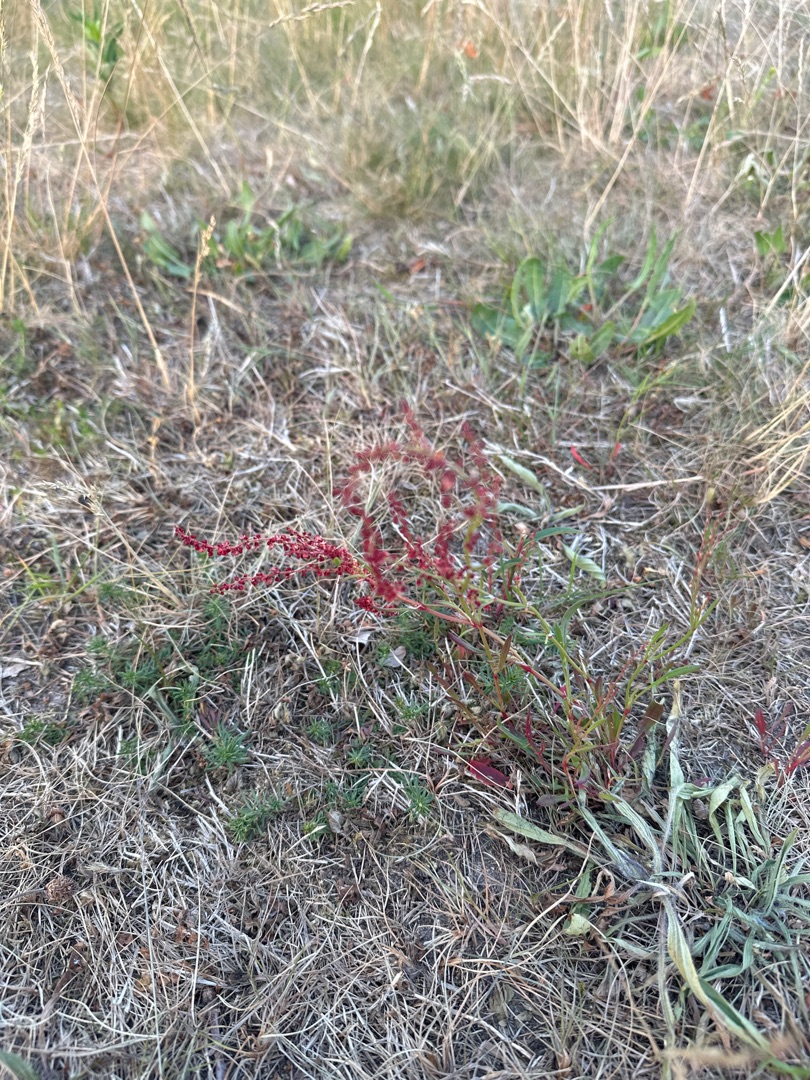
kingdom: Plantae
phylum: Tracheophyta
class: Magnoliopsida
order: Caryophyllales
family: Polygonaceae
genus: Rumex
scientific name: Rumex acetosella
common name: Rødknæ
